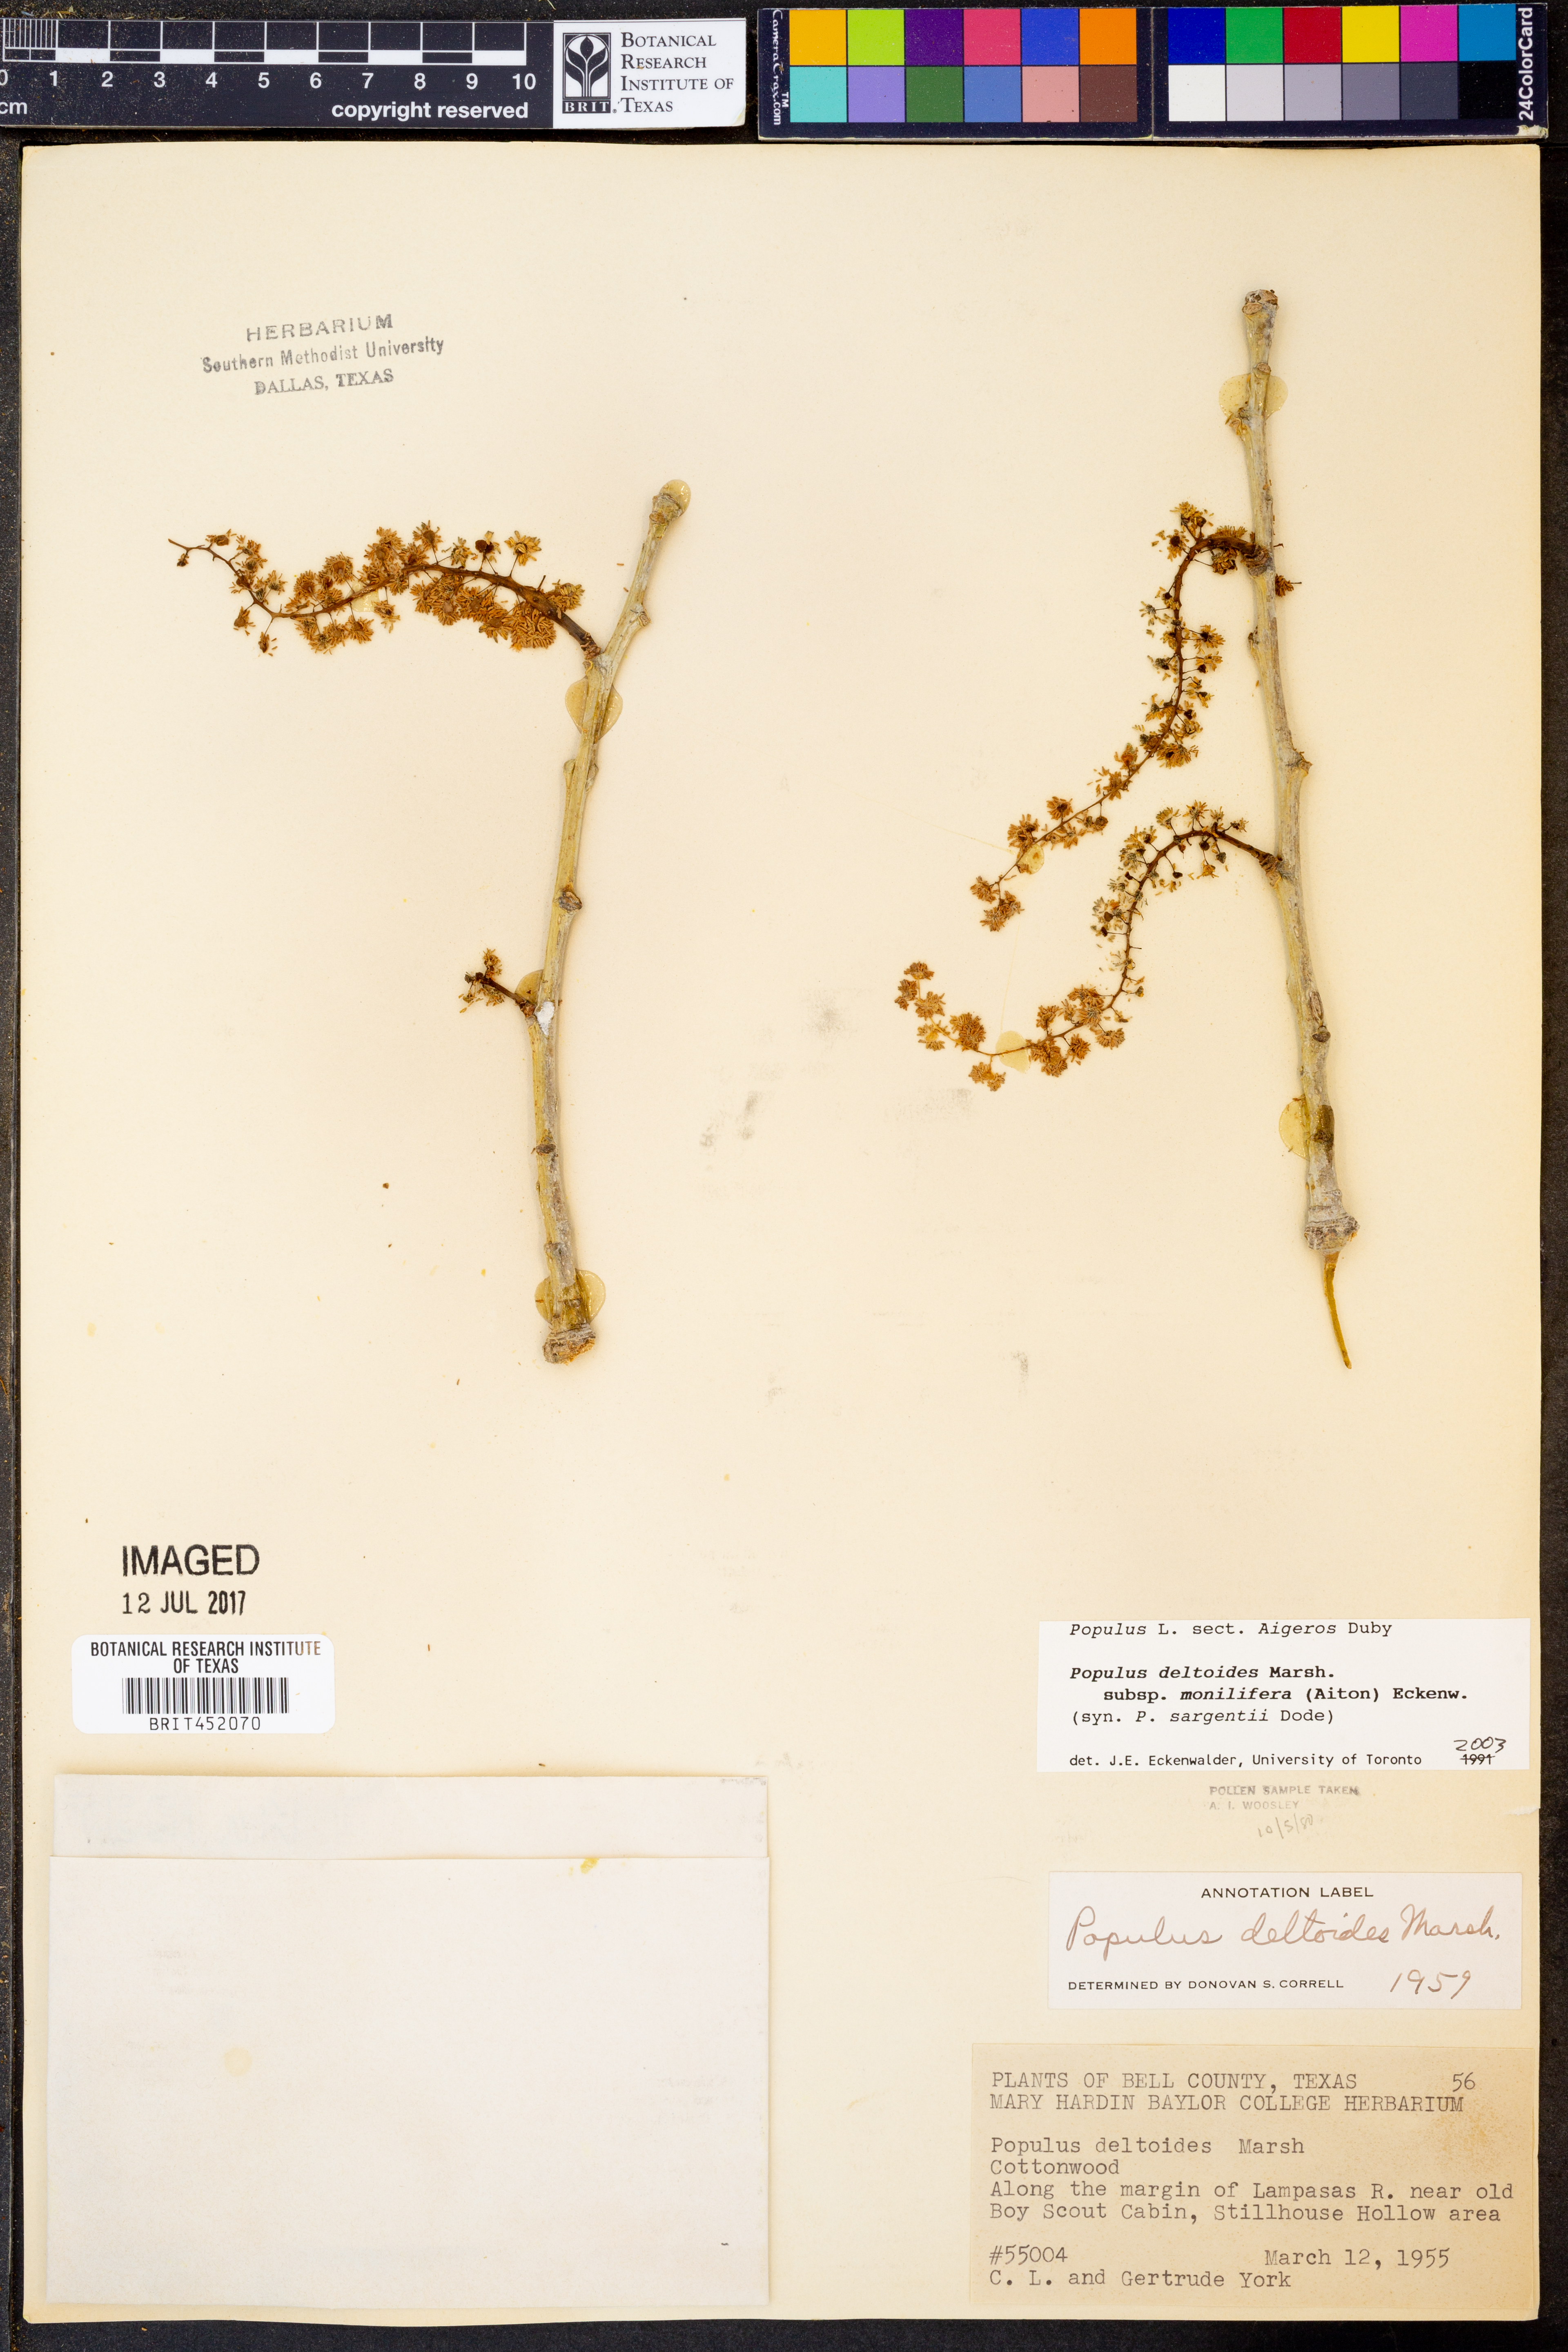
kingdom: Plantae
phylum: Tracheophyta
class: Magnoliopsida
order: Malpighiales
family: Salicaceae
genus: Populus
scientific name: Populus deltoides
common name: Eastern cottonwood
